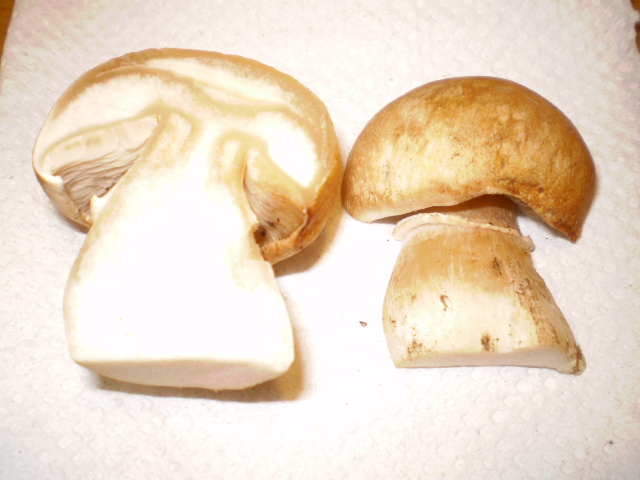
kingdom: Fungi
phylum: Basidiomycota
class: Agaricomycetes
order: Agaricales
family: Agaricaceae
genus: Agaricus
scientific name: Agaricus depauperatus
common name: finskællet champignon
